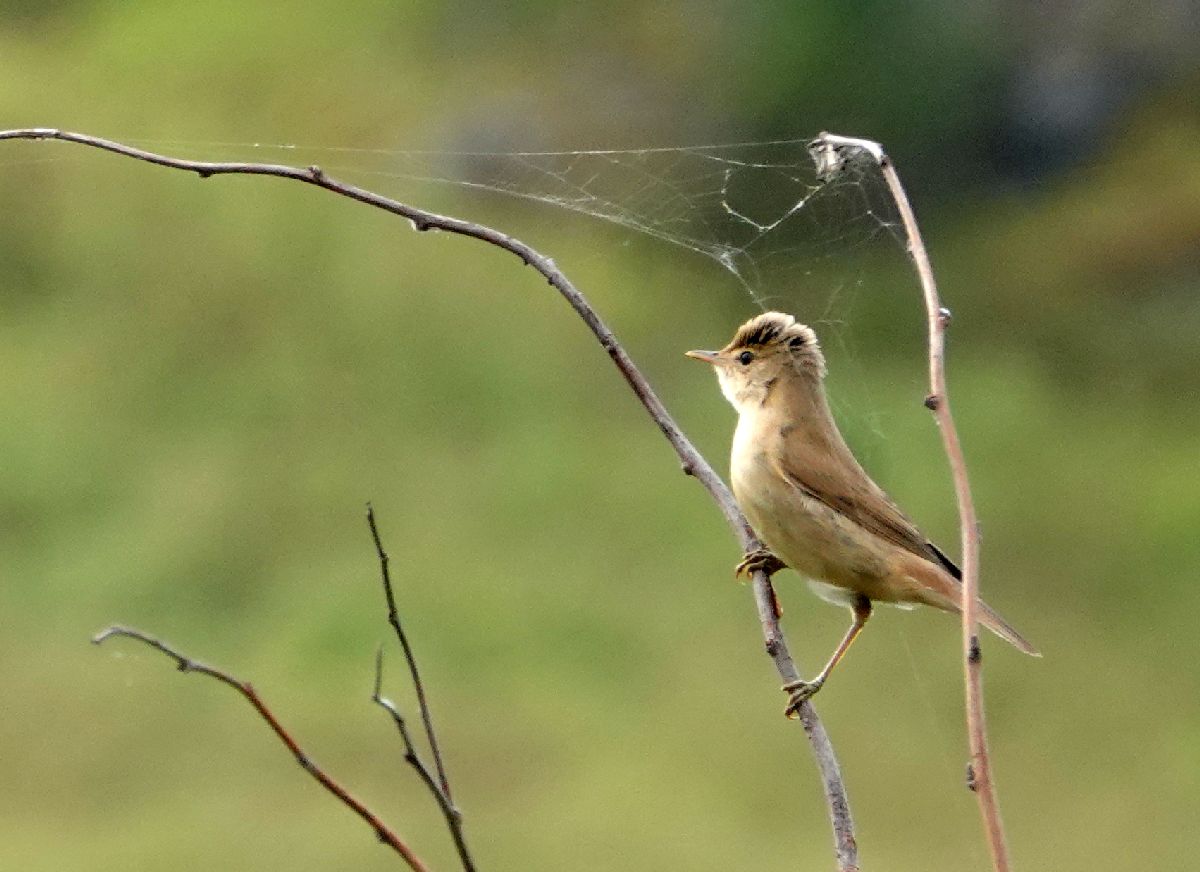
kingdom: Animalia
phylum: Chordata
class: Aves
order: Passeriformes
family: Acrocephalidae
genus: Acrocephalus
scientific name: Acrocephalus dumetorum
